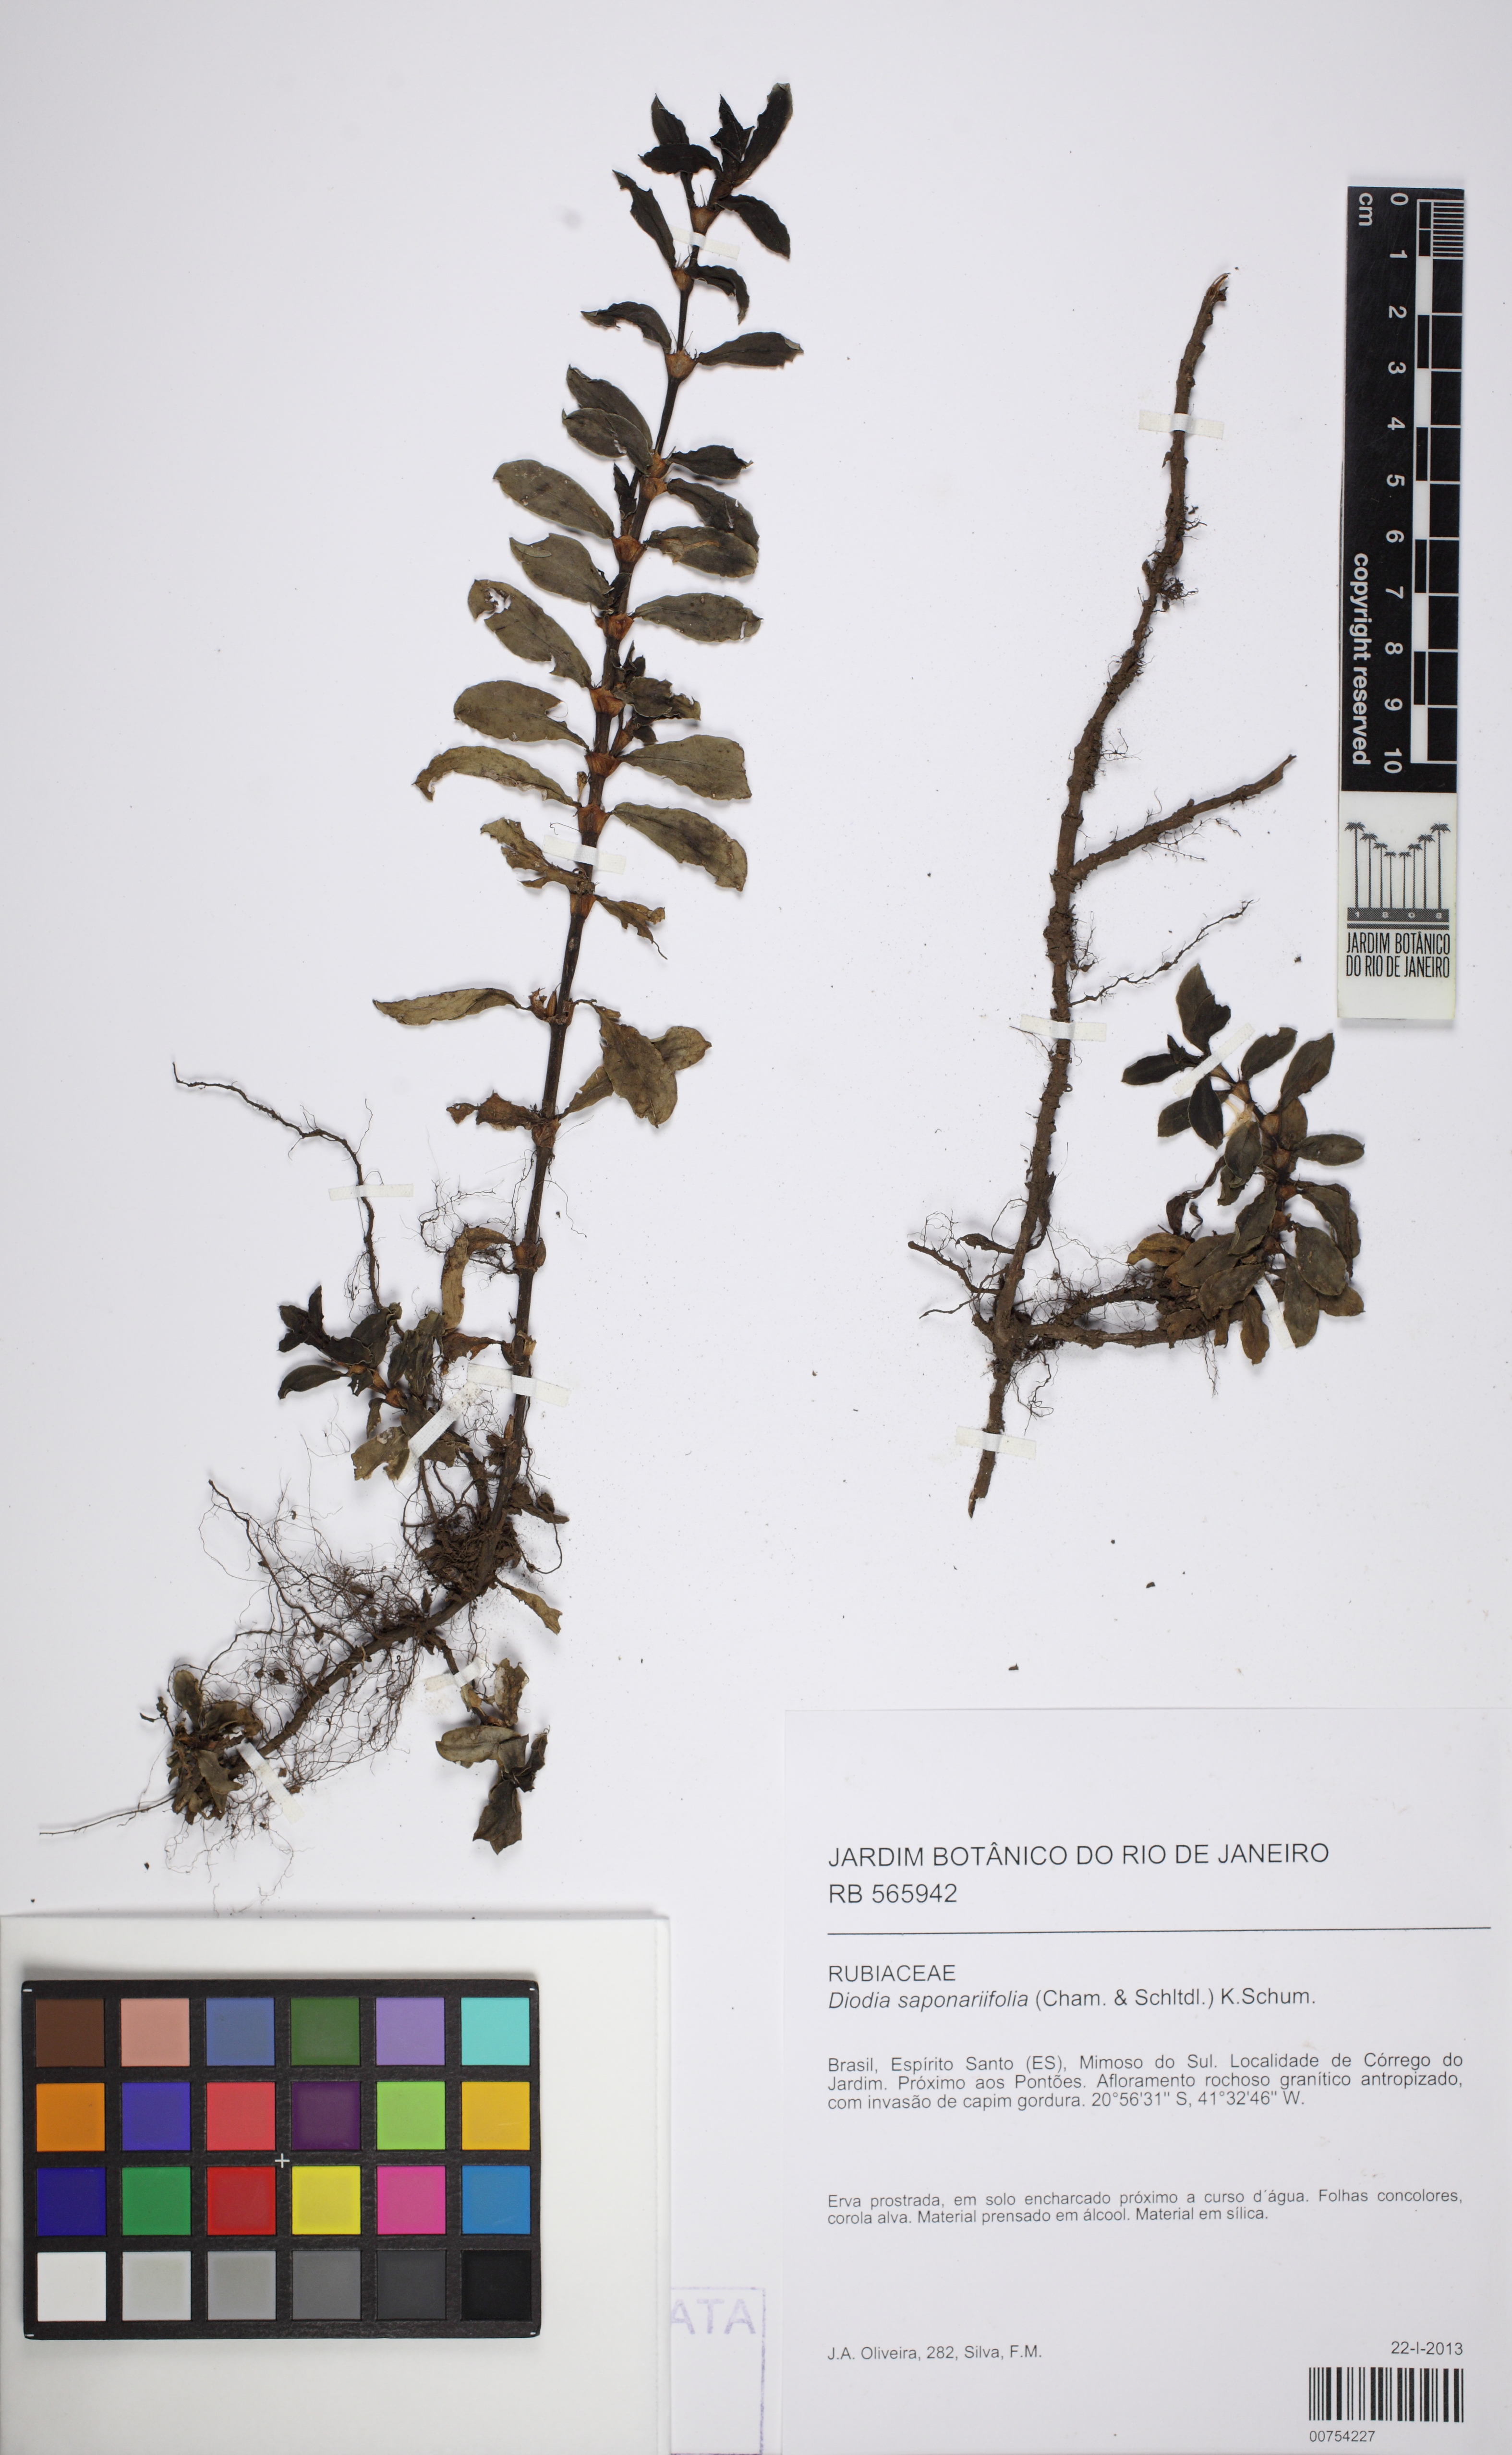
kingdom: Plantae
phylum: Tracheophyta
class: Magnoliopsida
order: Gentianales
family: Rubiaceae
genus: Diodia
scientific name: Diodia saponariifolia
